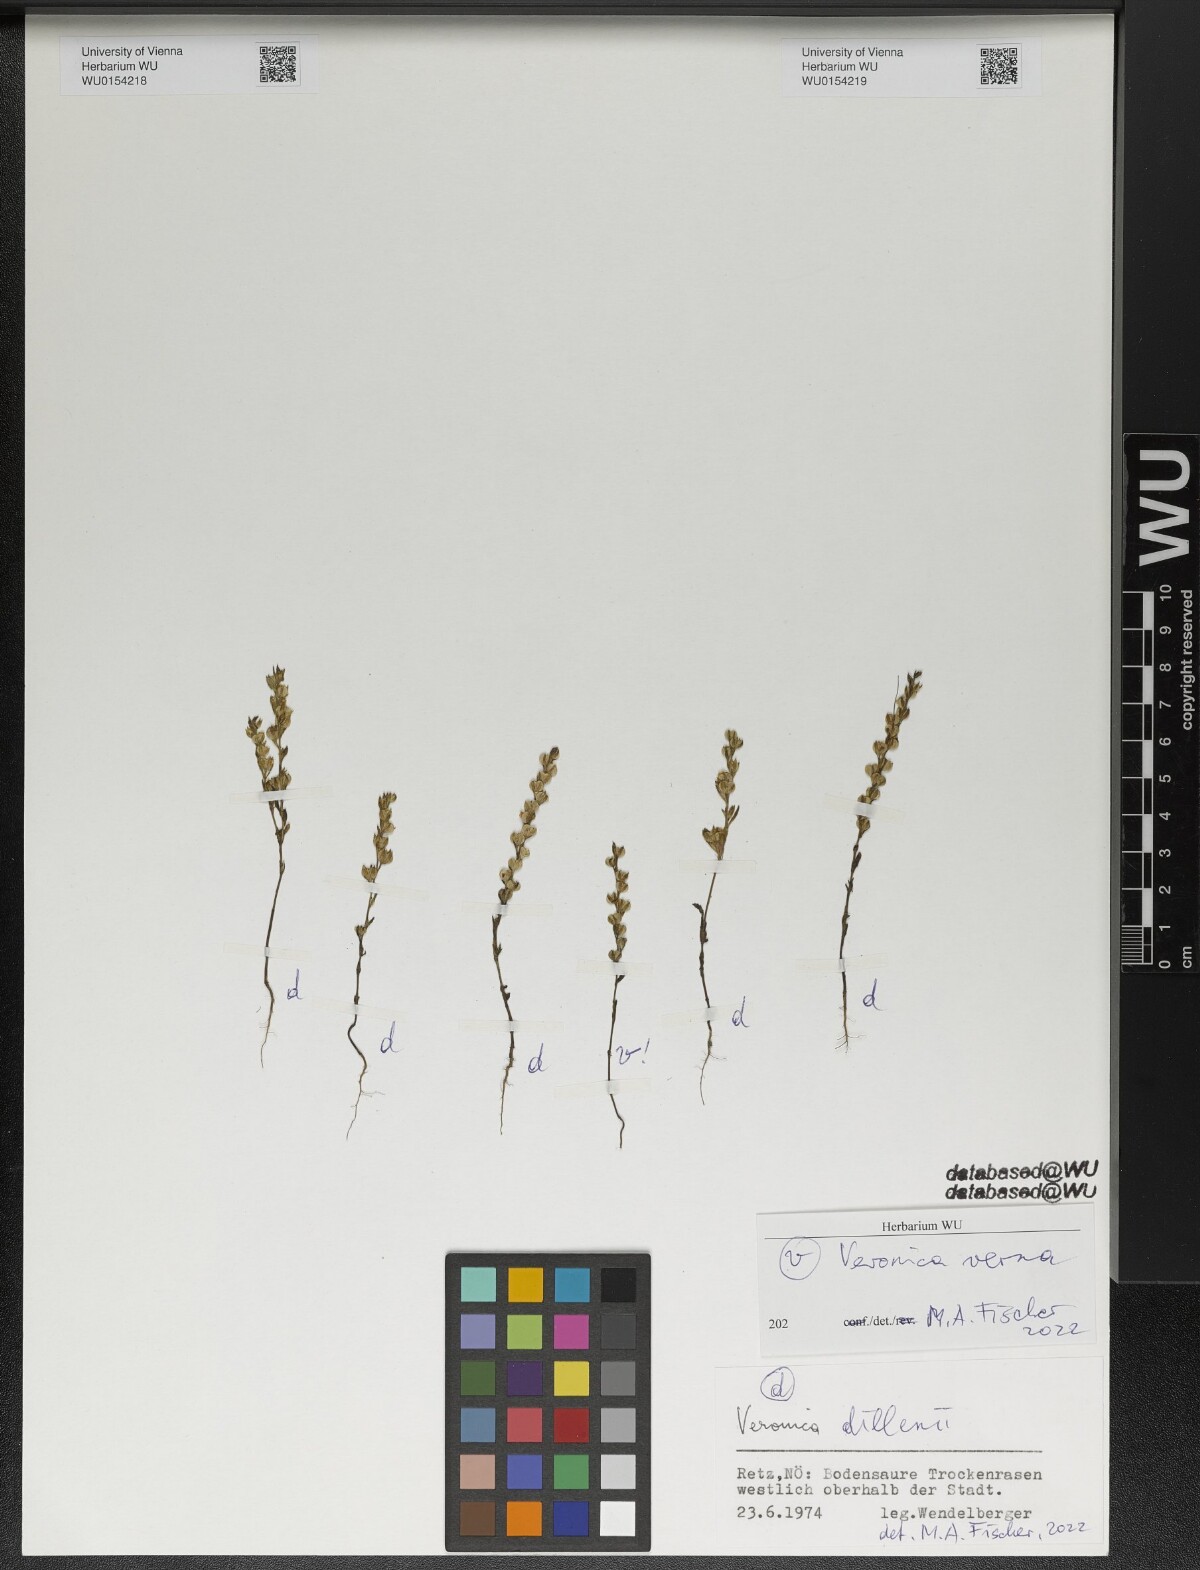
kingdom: Plantae
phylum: Tracheophyta
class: Magnoliopsida
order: Lamiales
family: Plantaginaceae
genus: Veronica
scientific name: Veronica verna
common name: Spring speedwell
